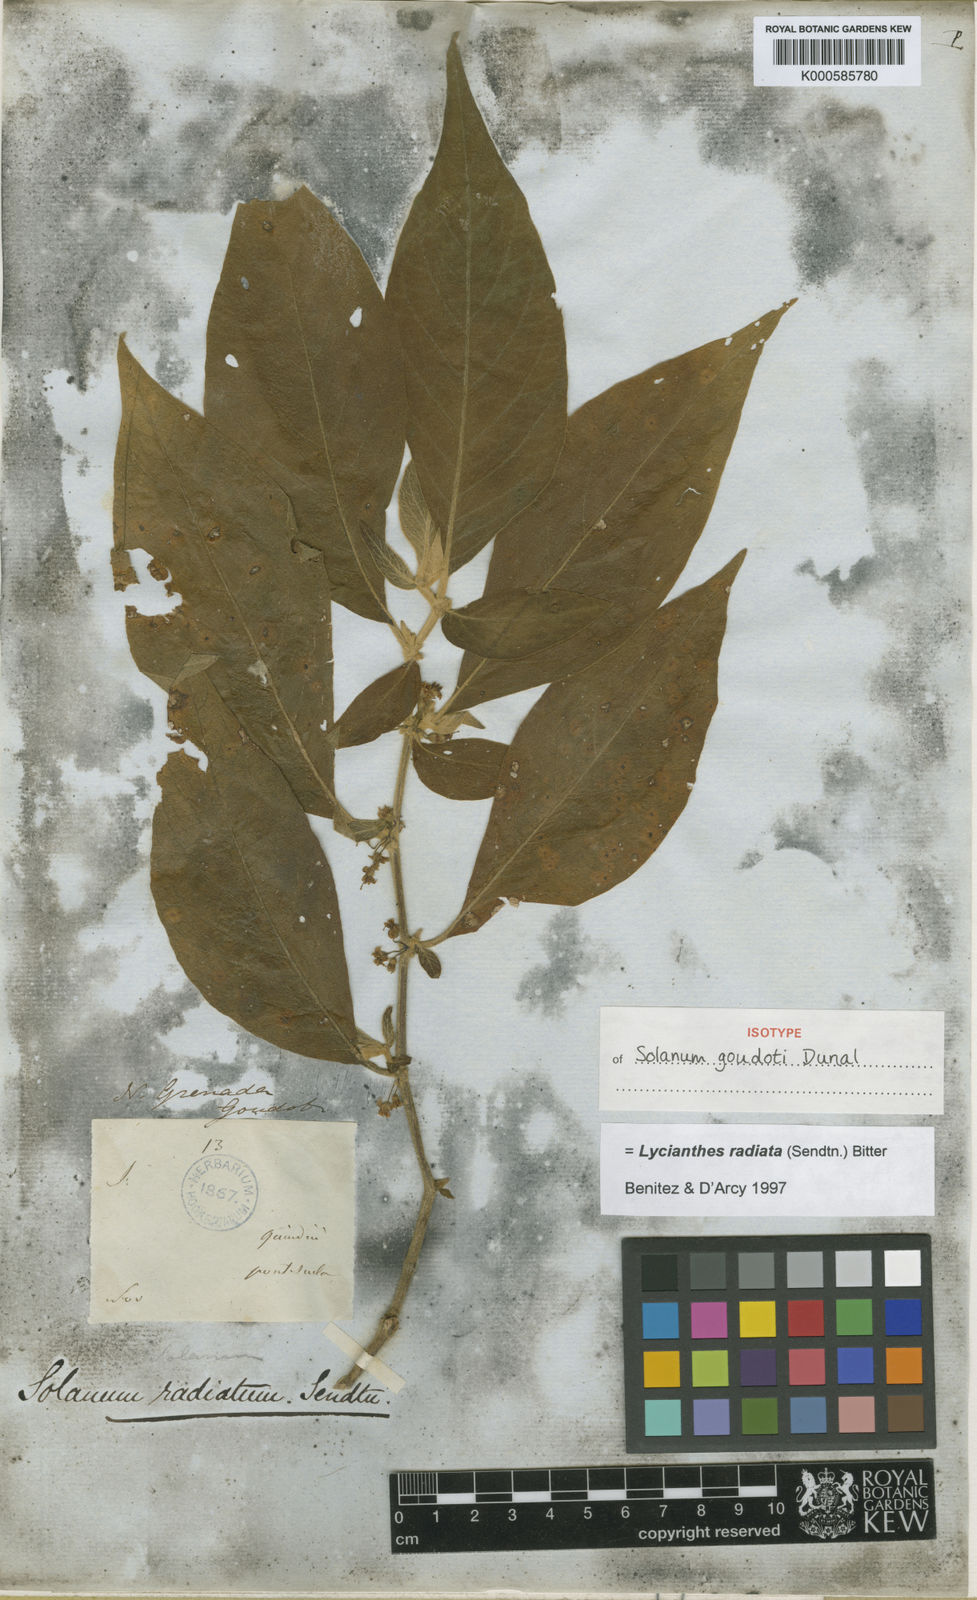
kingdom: Plantae
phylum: Tracheophyta
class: Magnoliopsida
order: Solanales
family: Solanaceae
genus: Lycianthes
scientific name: Lycianthes radiata
